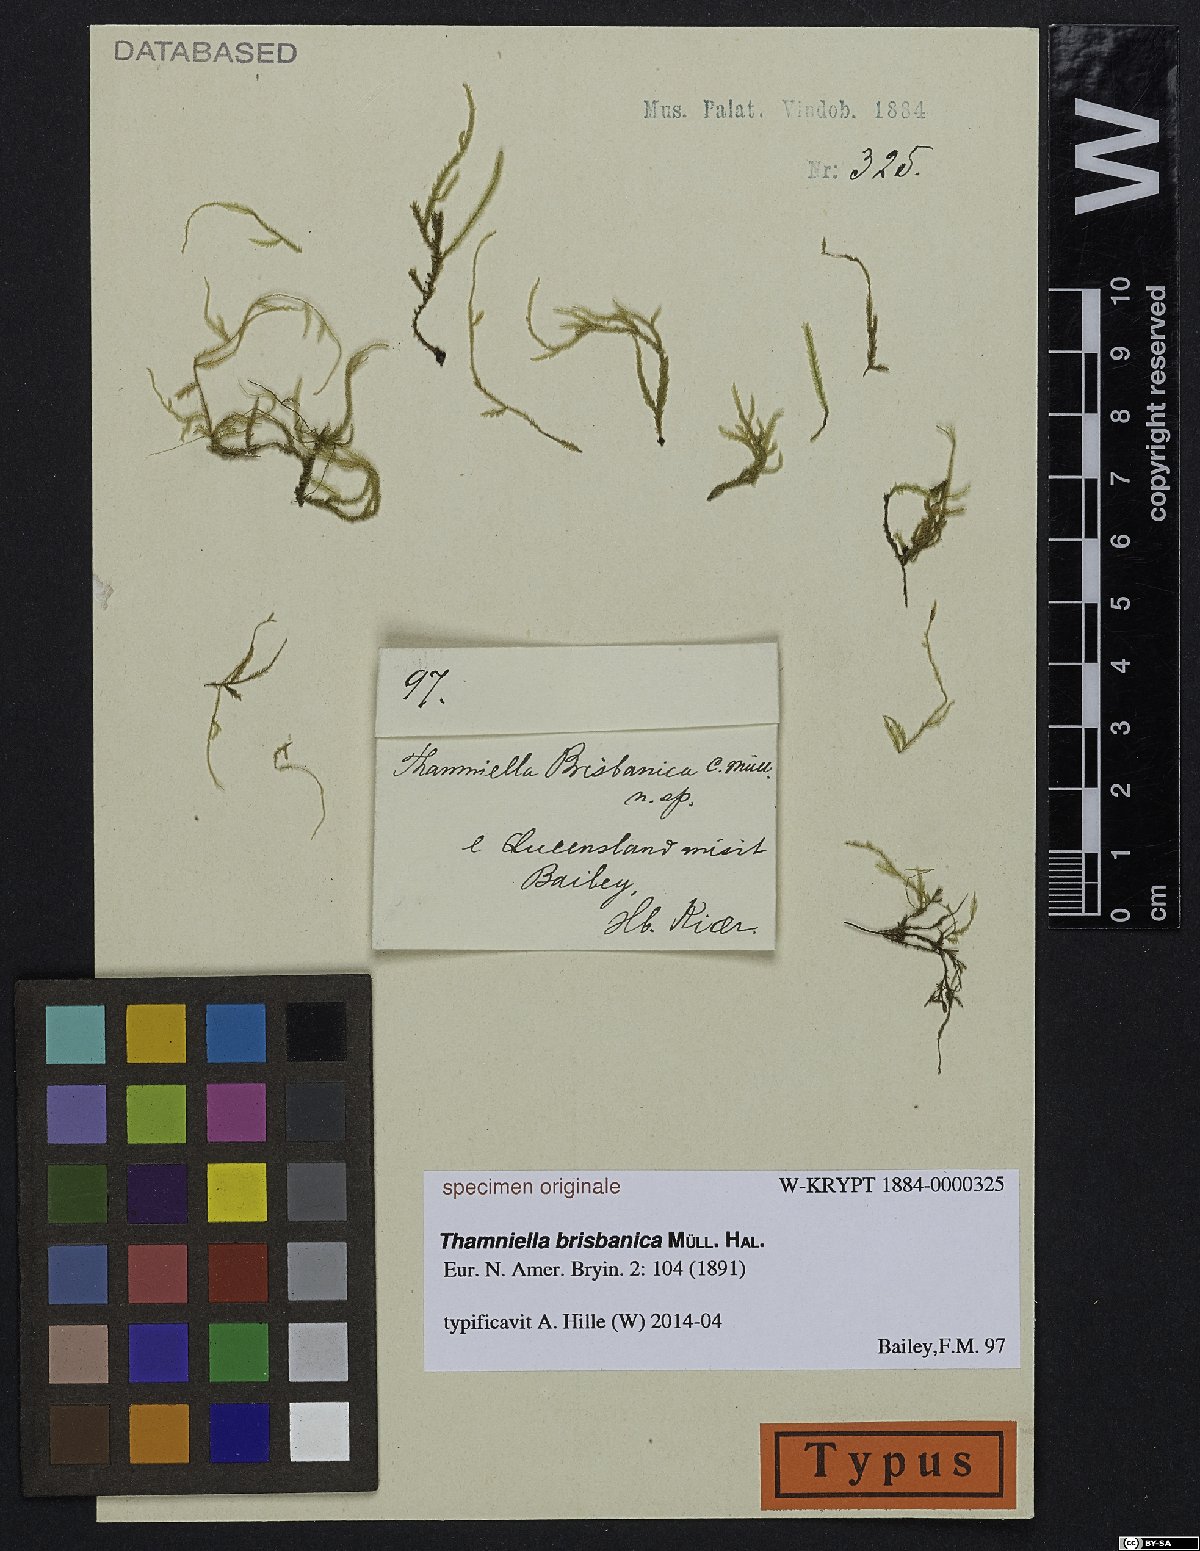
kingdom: Plantae
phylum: Bryophyta
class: Bryopsida
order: Hypnales
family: Lembophyllaceae
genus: Camptochaete
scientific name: Camptochaete
